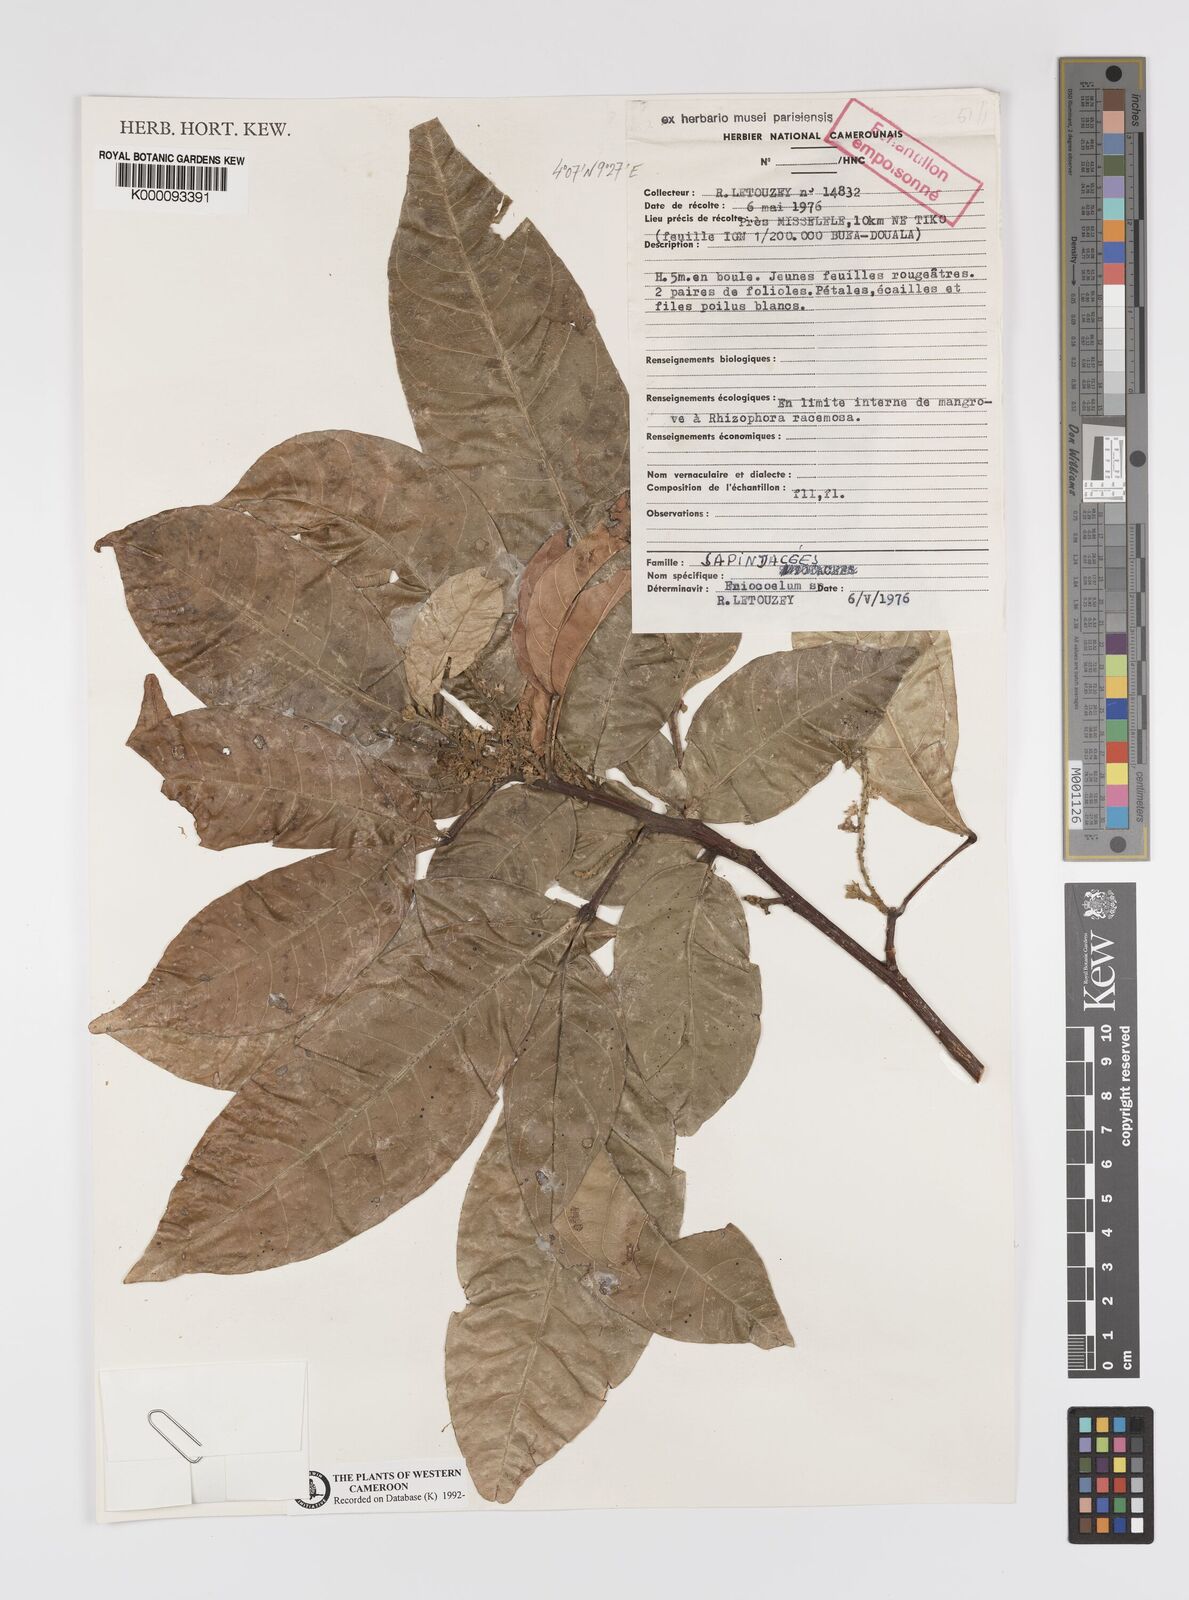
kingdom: Plantae
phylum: Tracheophyta
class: Magnoliopsida
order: Sapindales
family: Sapindaceae
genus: Eriocoelum
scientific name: Eriocoelum
